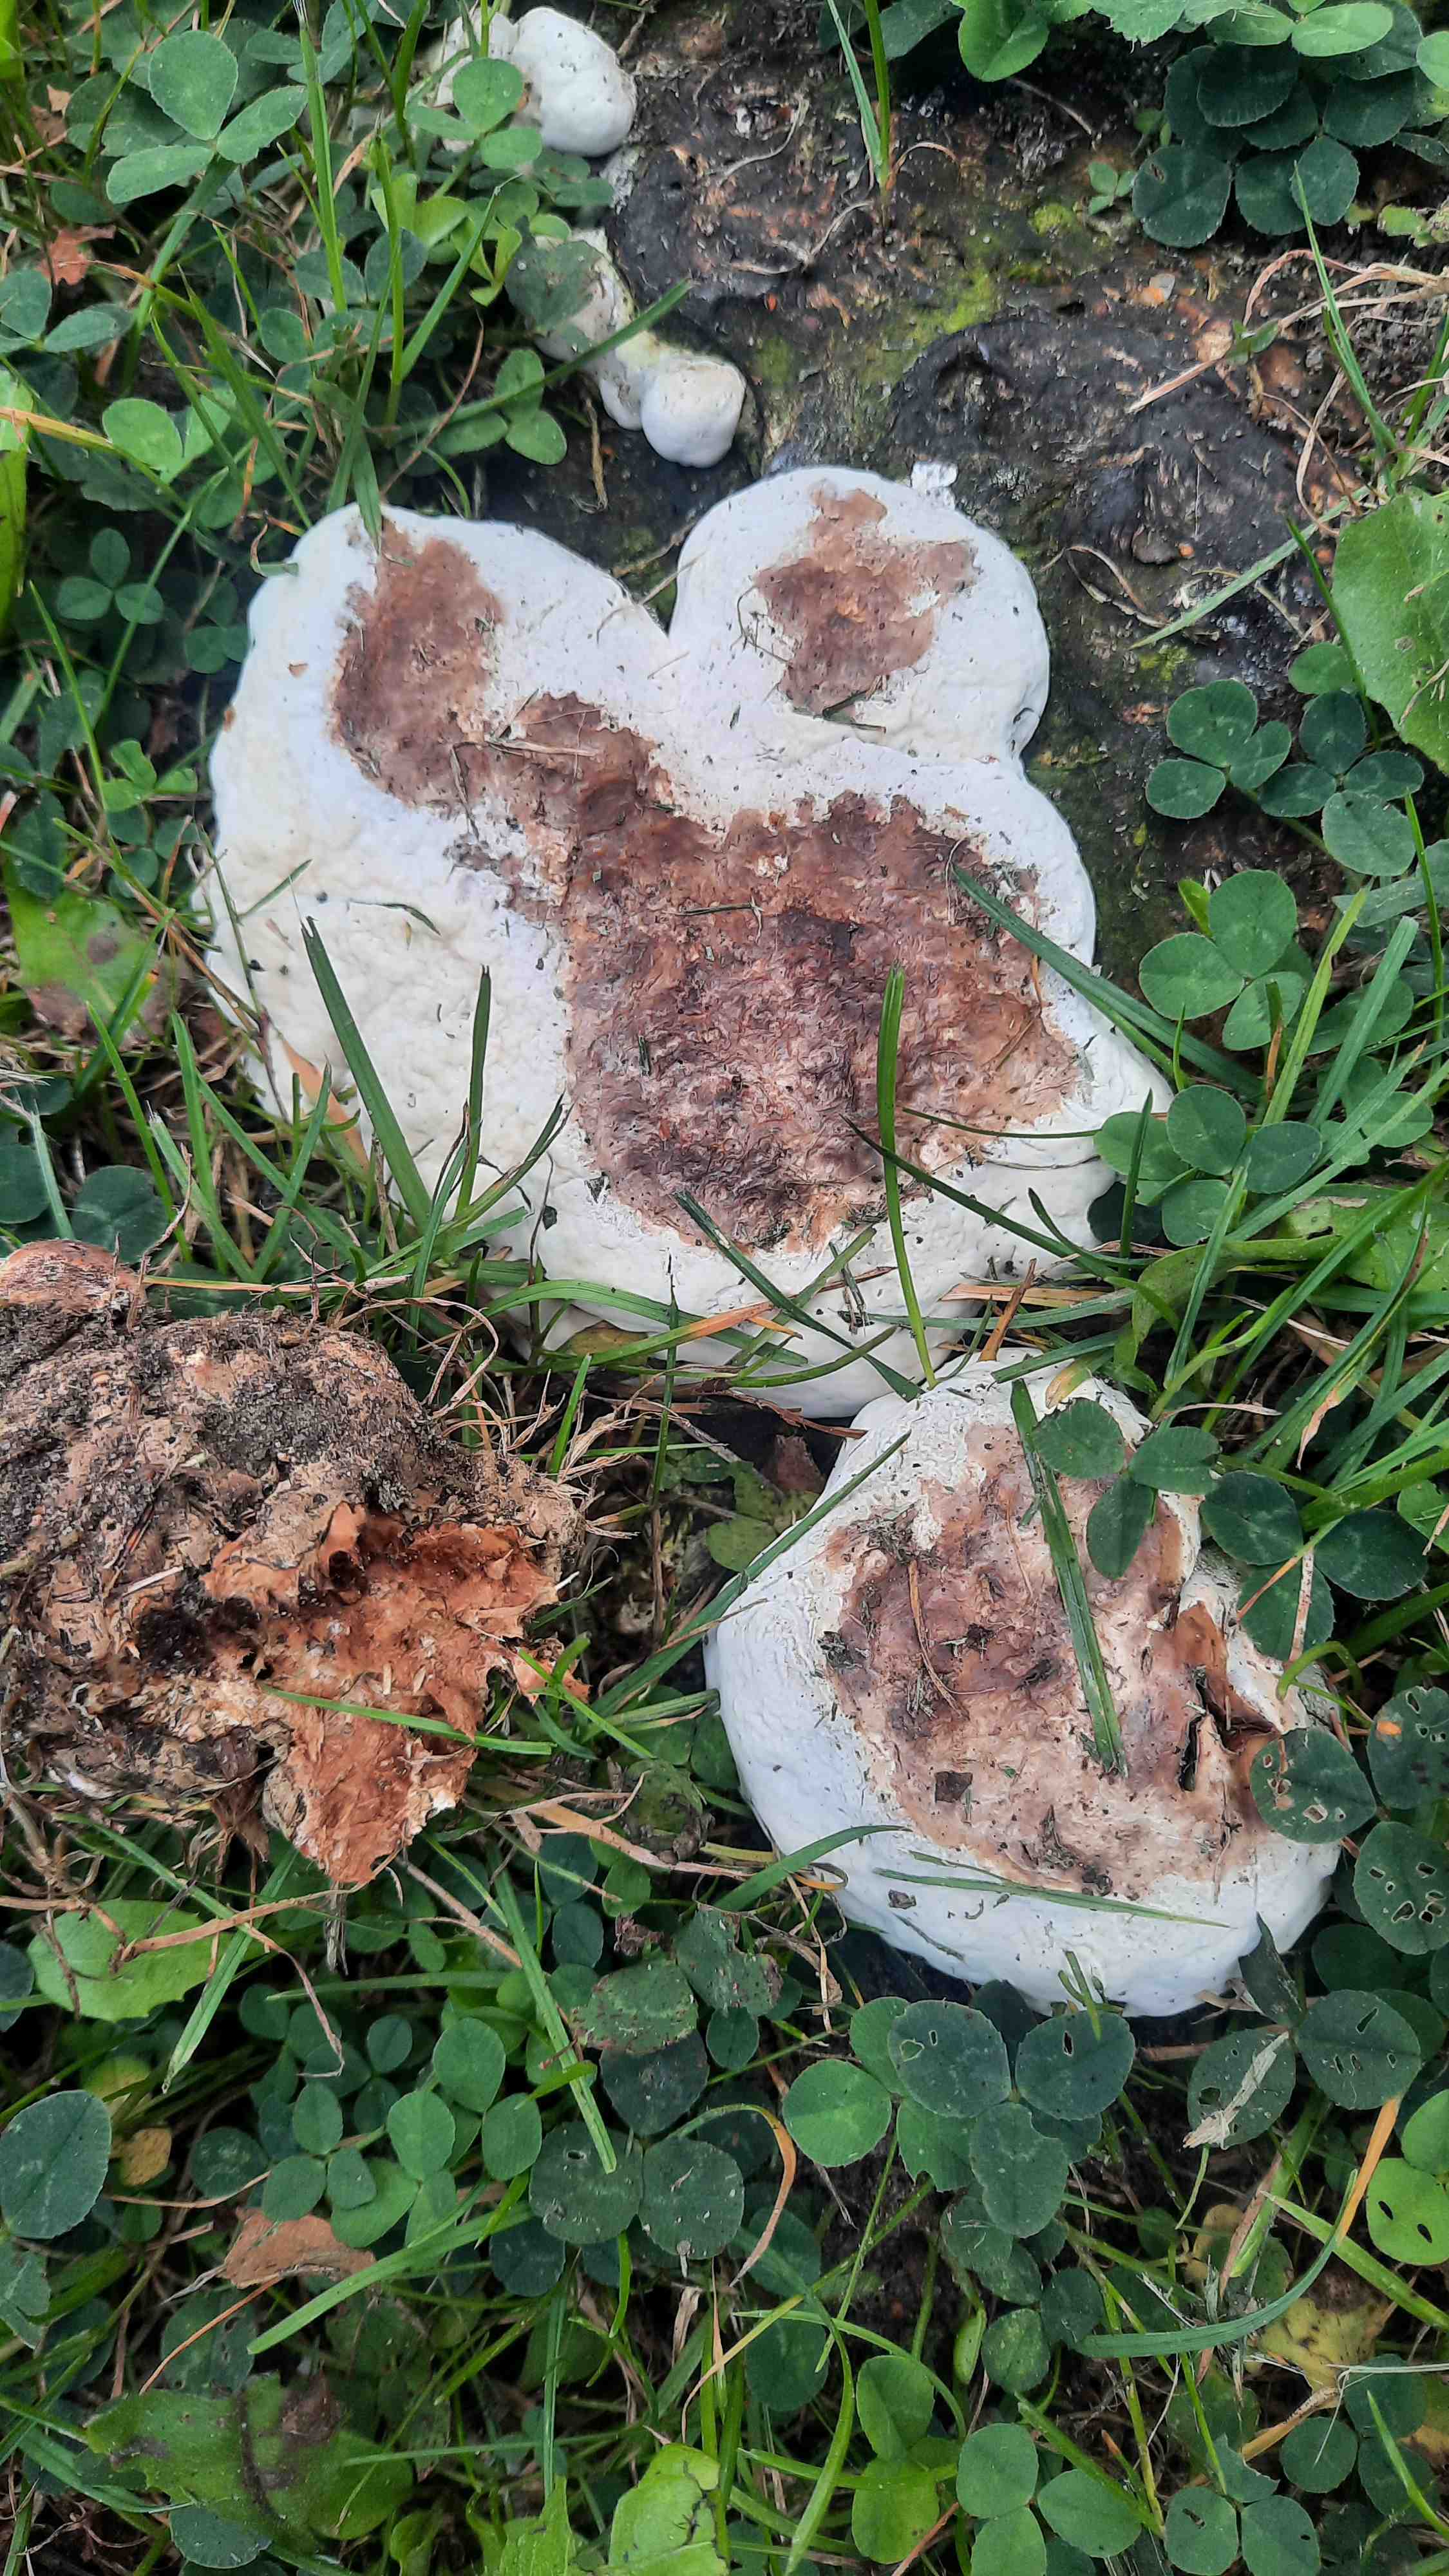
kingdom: Fungi
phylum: Basidiomycota
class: Agaricomycetes
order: Russulales
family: Bondarzewiaceae
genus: Heterobasidion
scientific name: Heterobasidion
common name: rodfordærver
